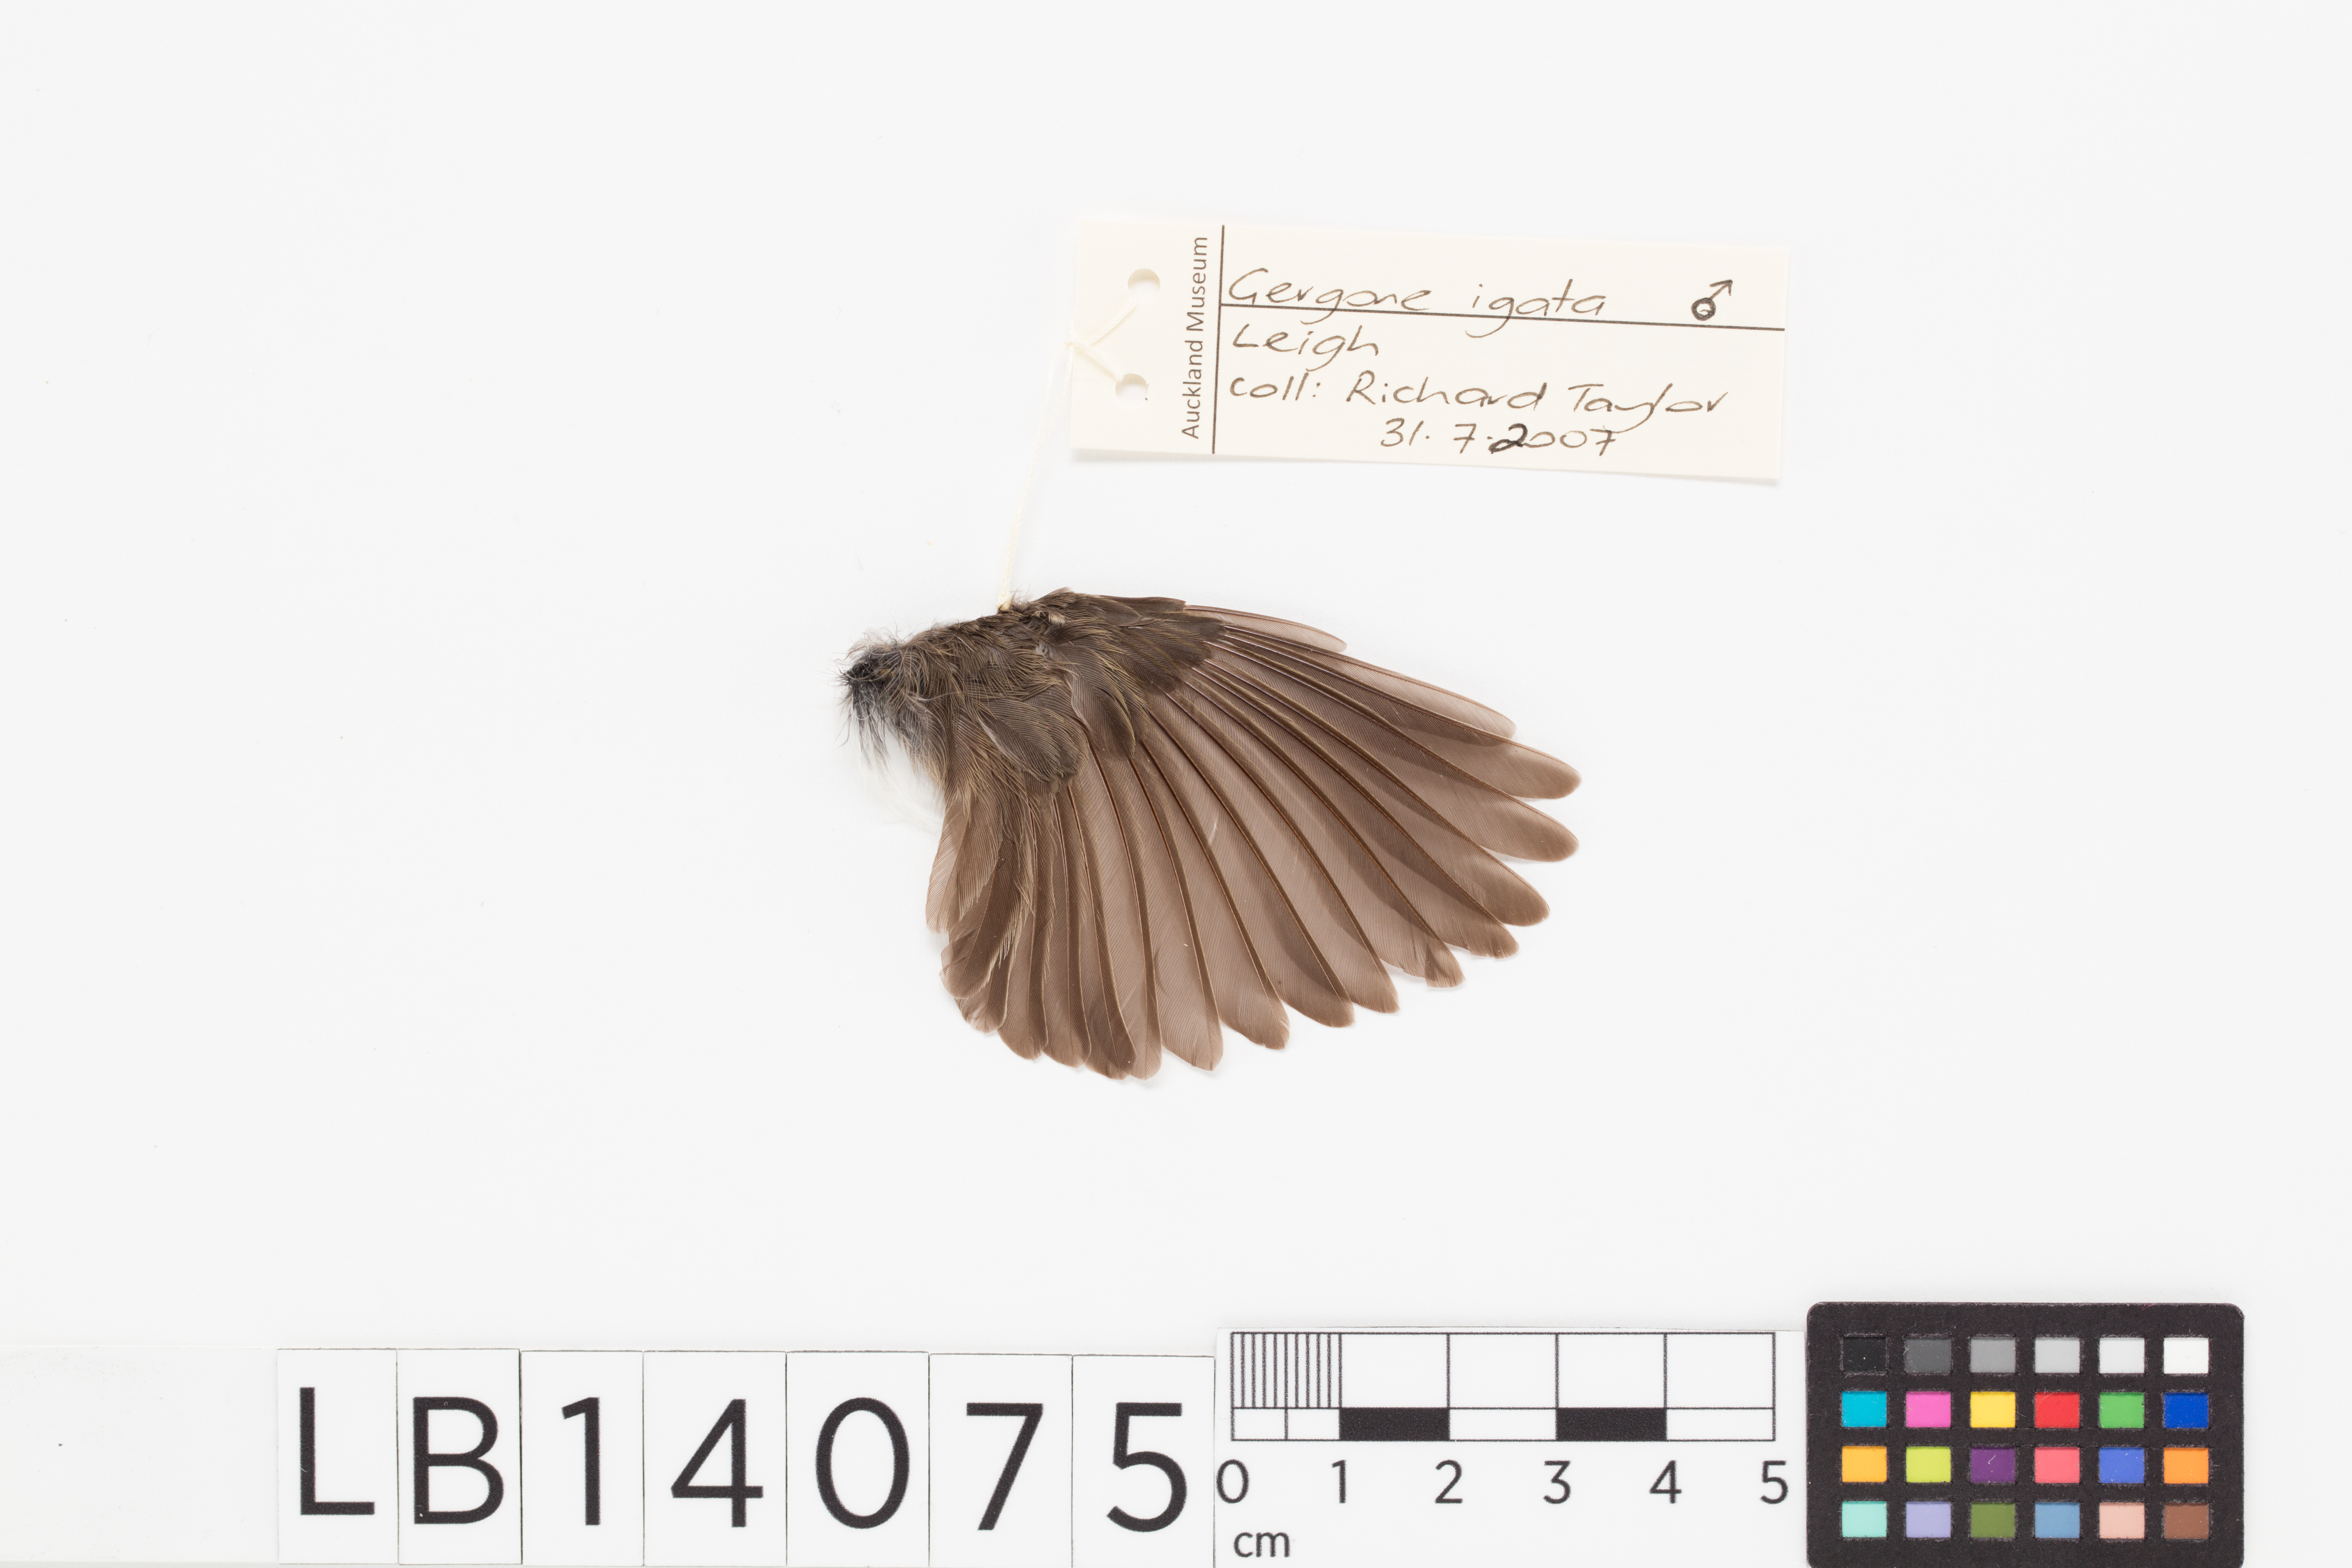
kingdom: Animalia
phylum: Chordata
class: Aves
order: Passeriformes
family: Acanthizidae
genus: Gerygone
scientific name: Gerygone igata
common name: Grey gerygone
